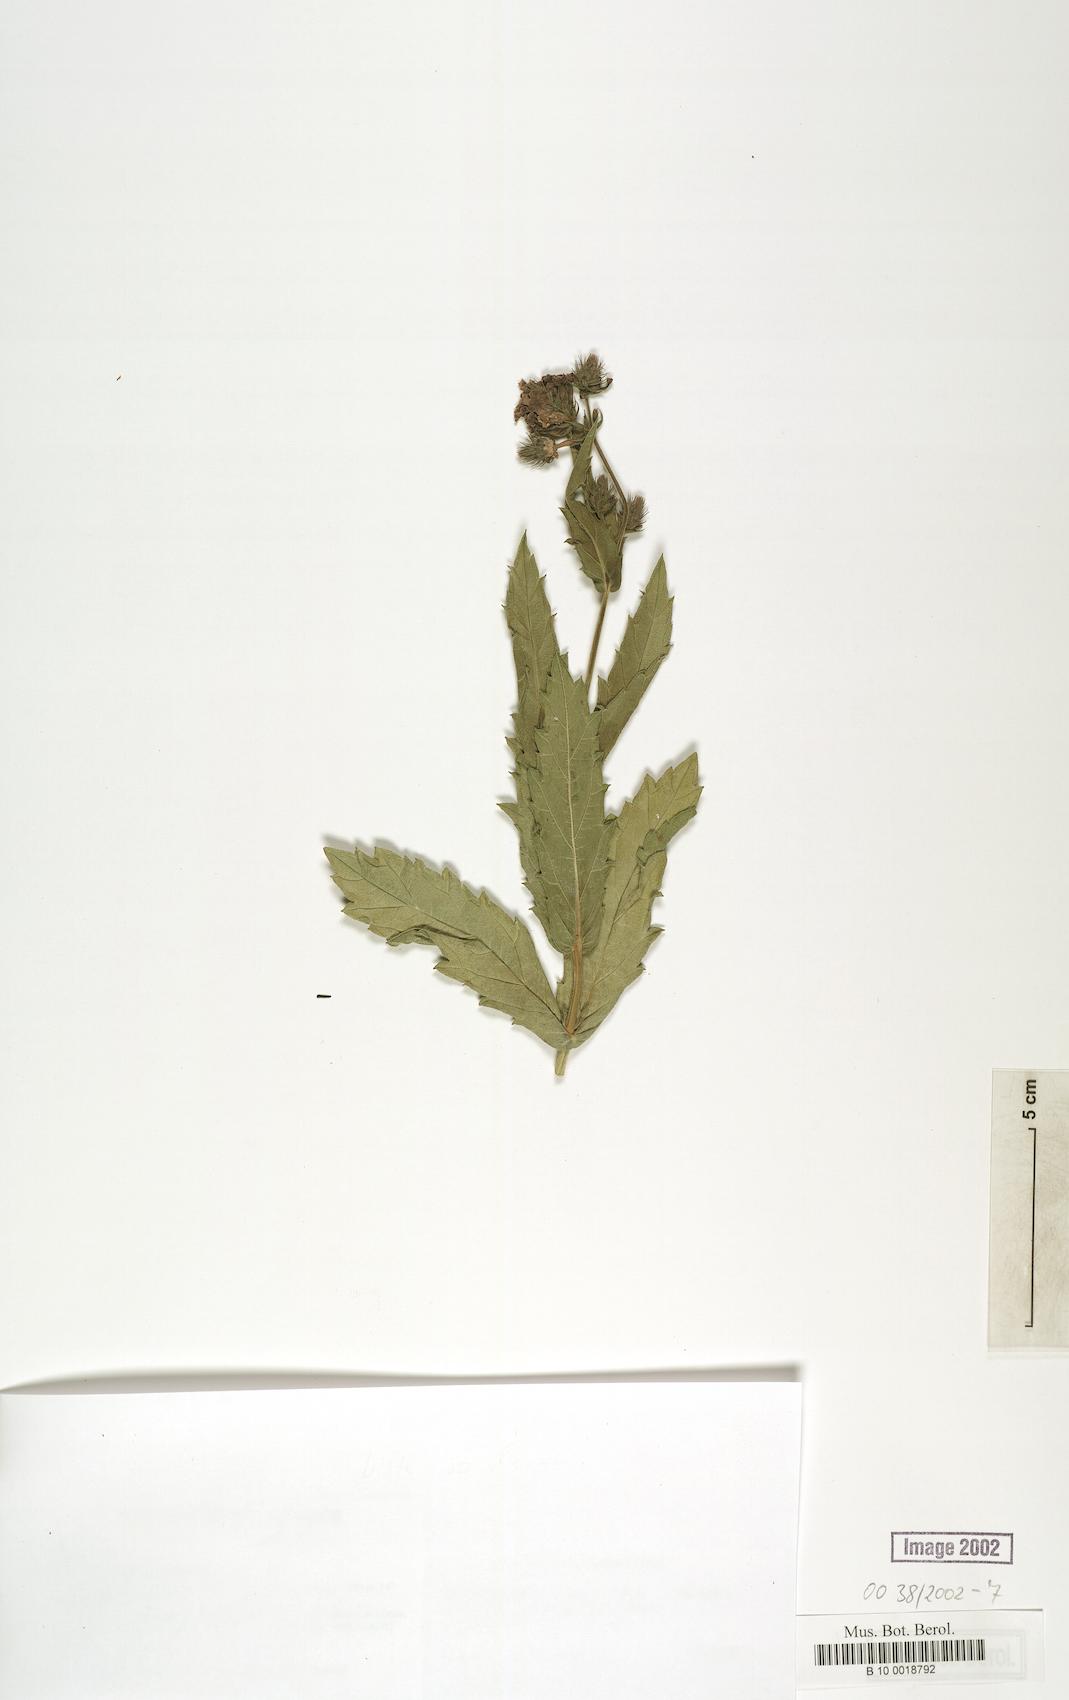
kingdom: Plantae
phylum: Tracheophyta
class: Magnoliopsida
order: Malpighiales
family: Salicaceae
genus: Prockia
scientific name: Prockia crucis
